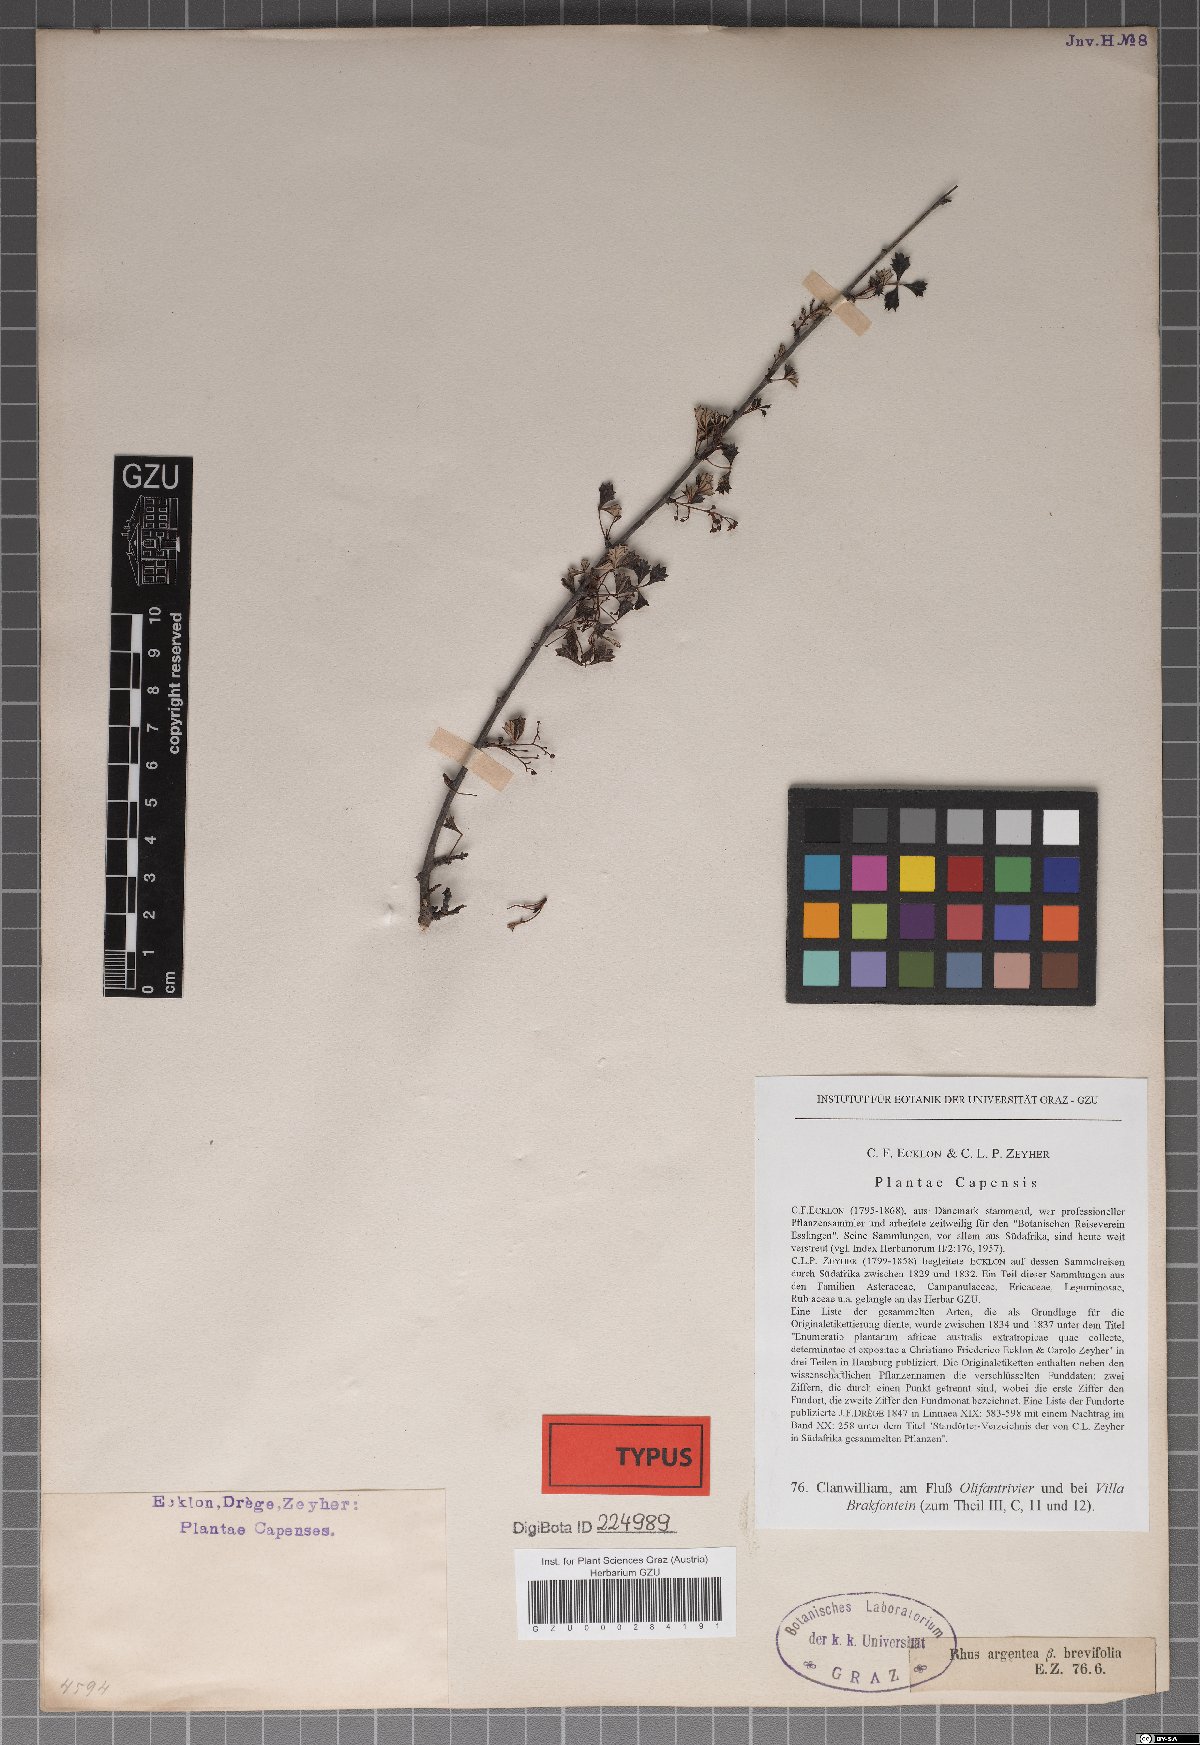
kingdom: Plantae
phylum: Tracheophyta
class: Magnoliopsida
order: Sapindales
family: Anacardiaceae
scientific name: Anacardiaceae
